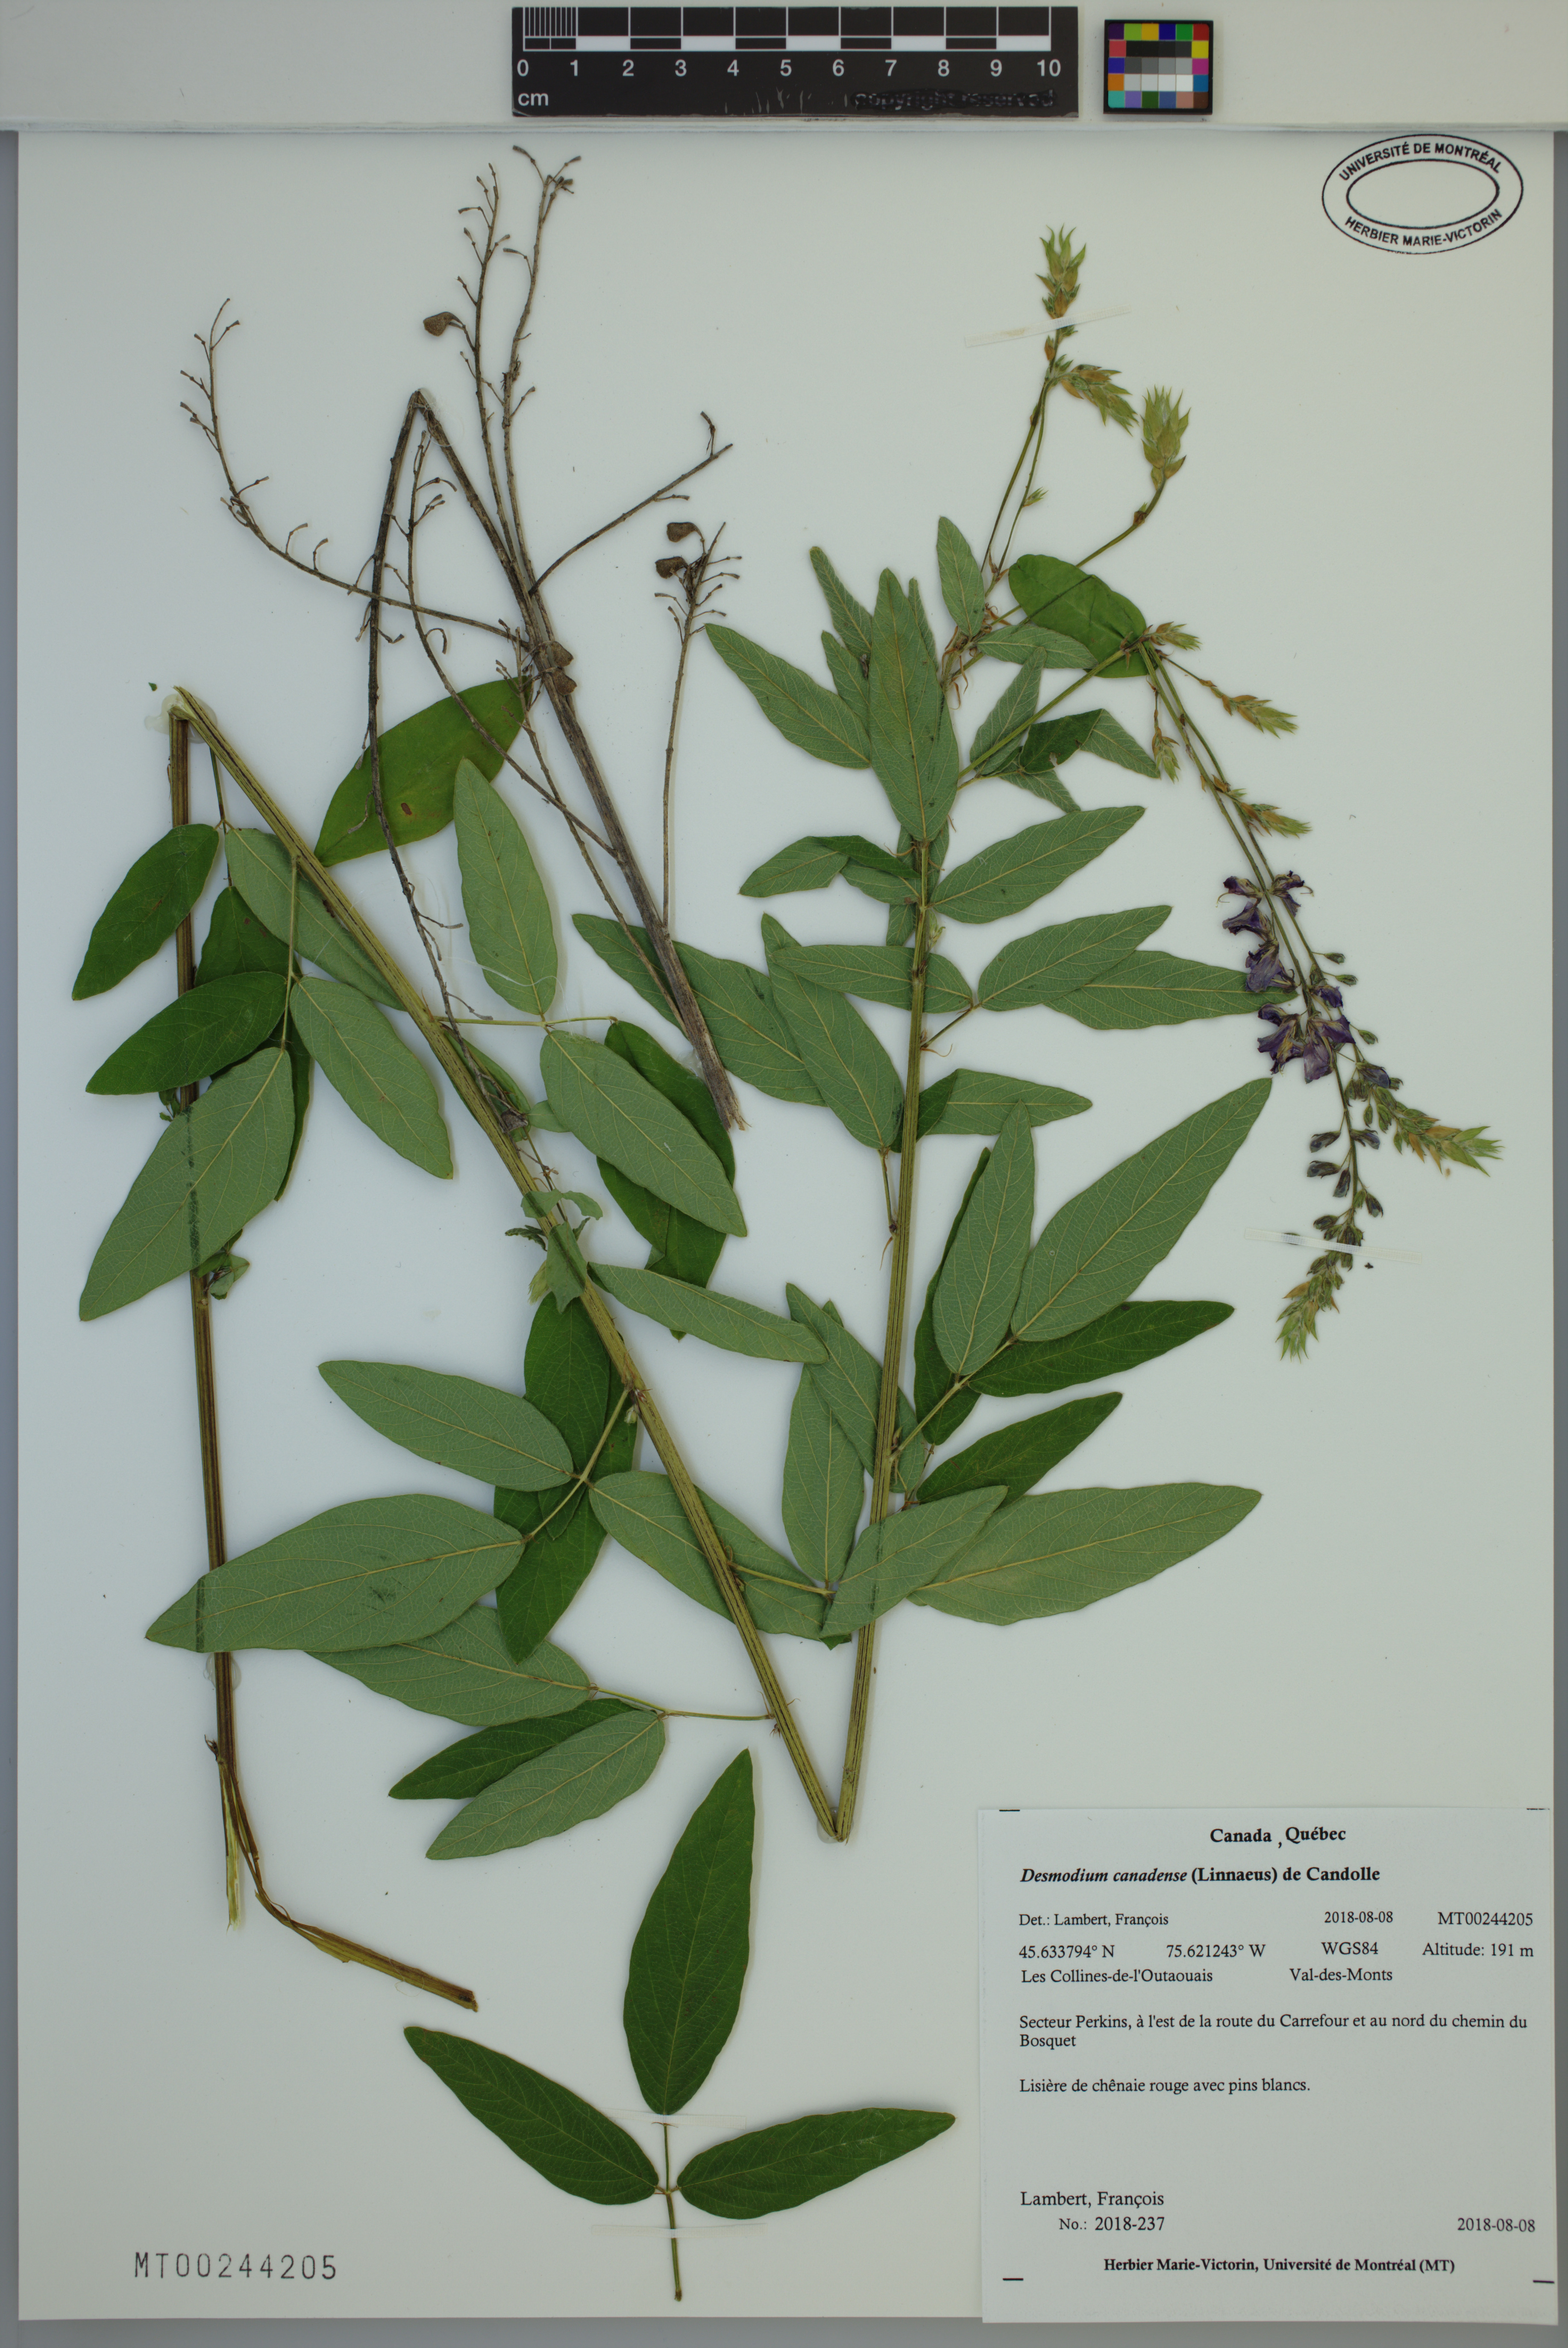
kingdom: Plantae
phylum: Tracheophyta
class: Magnoliopsida
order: Fabales
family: Fabaceae
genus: Desmodium
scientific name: Desmodium canadense
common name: Canada tick-trefoil
